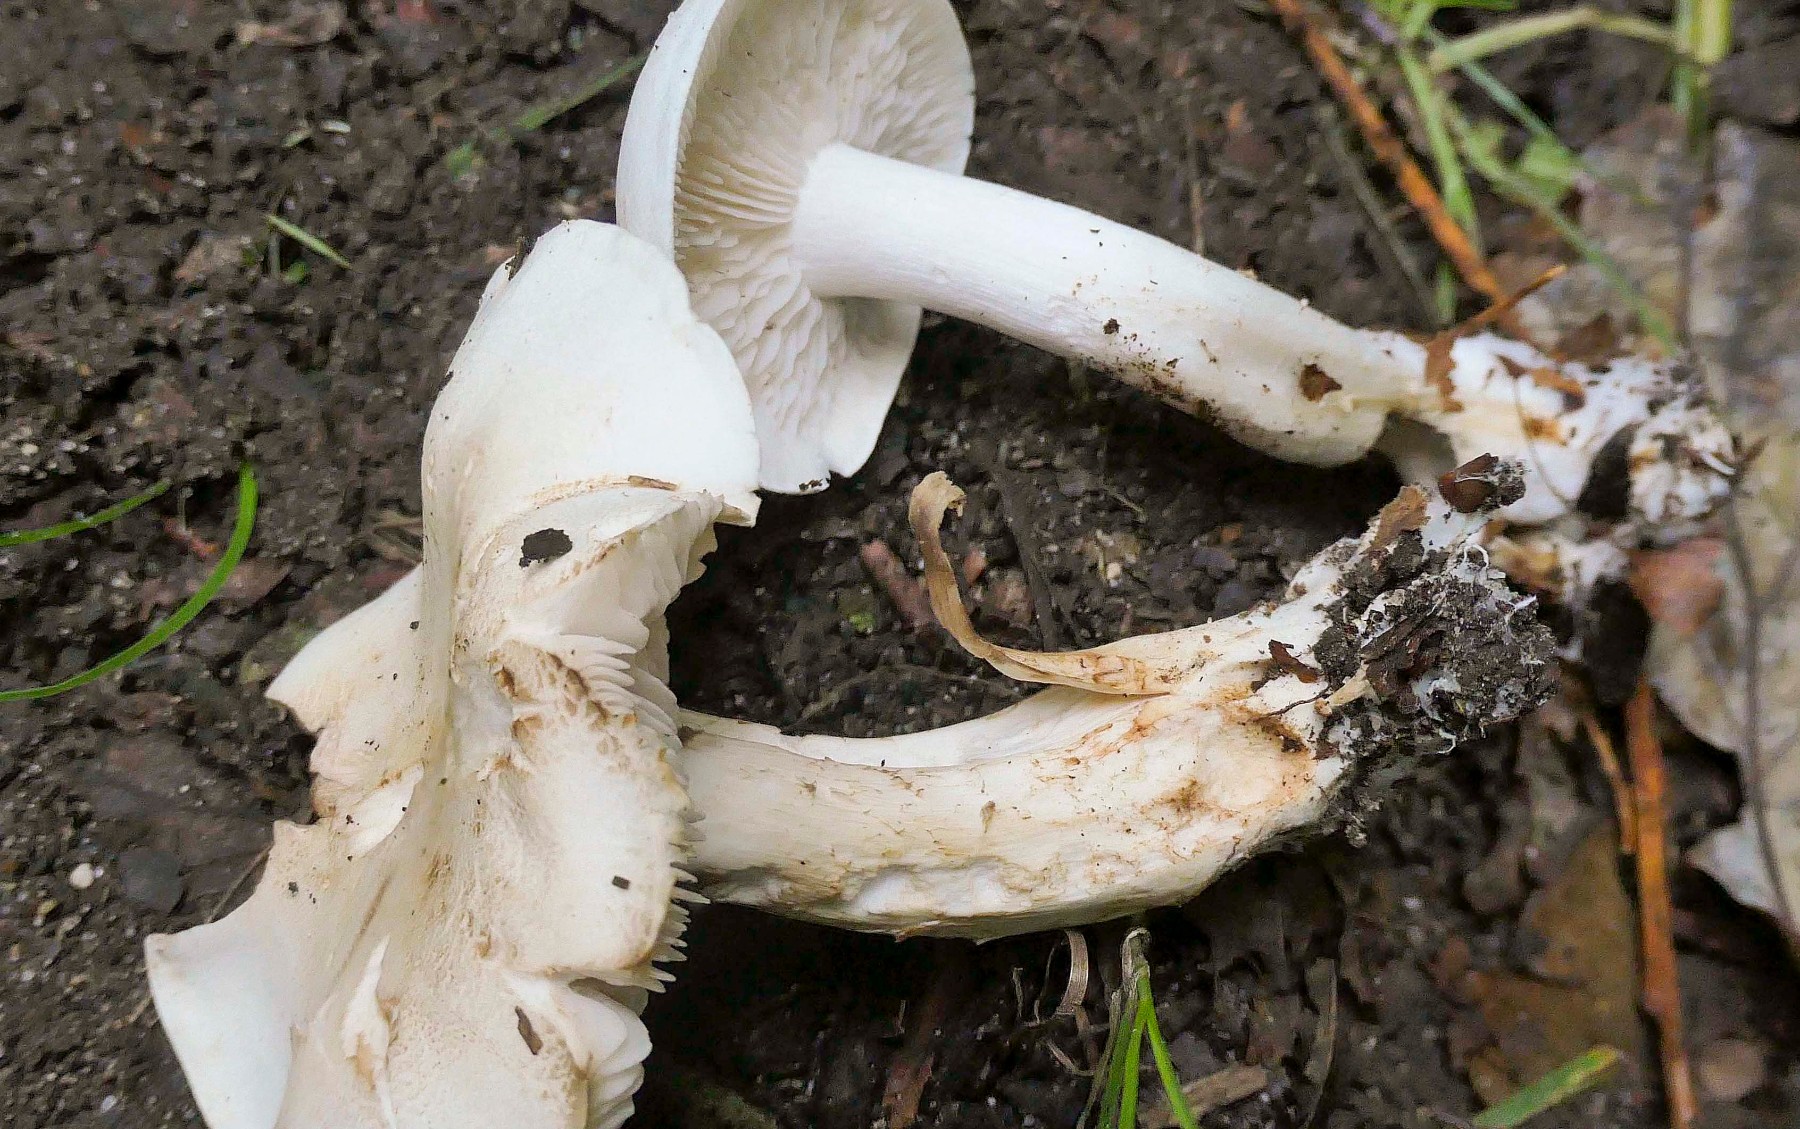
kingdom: Fungi
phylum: Basidiomycota
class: Agaricomycetes
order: Agaricales
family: Tricholomataceae
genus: Tricholoma
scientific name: Tricholoma album
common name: honning-ridderhat
